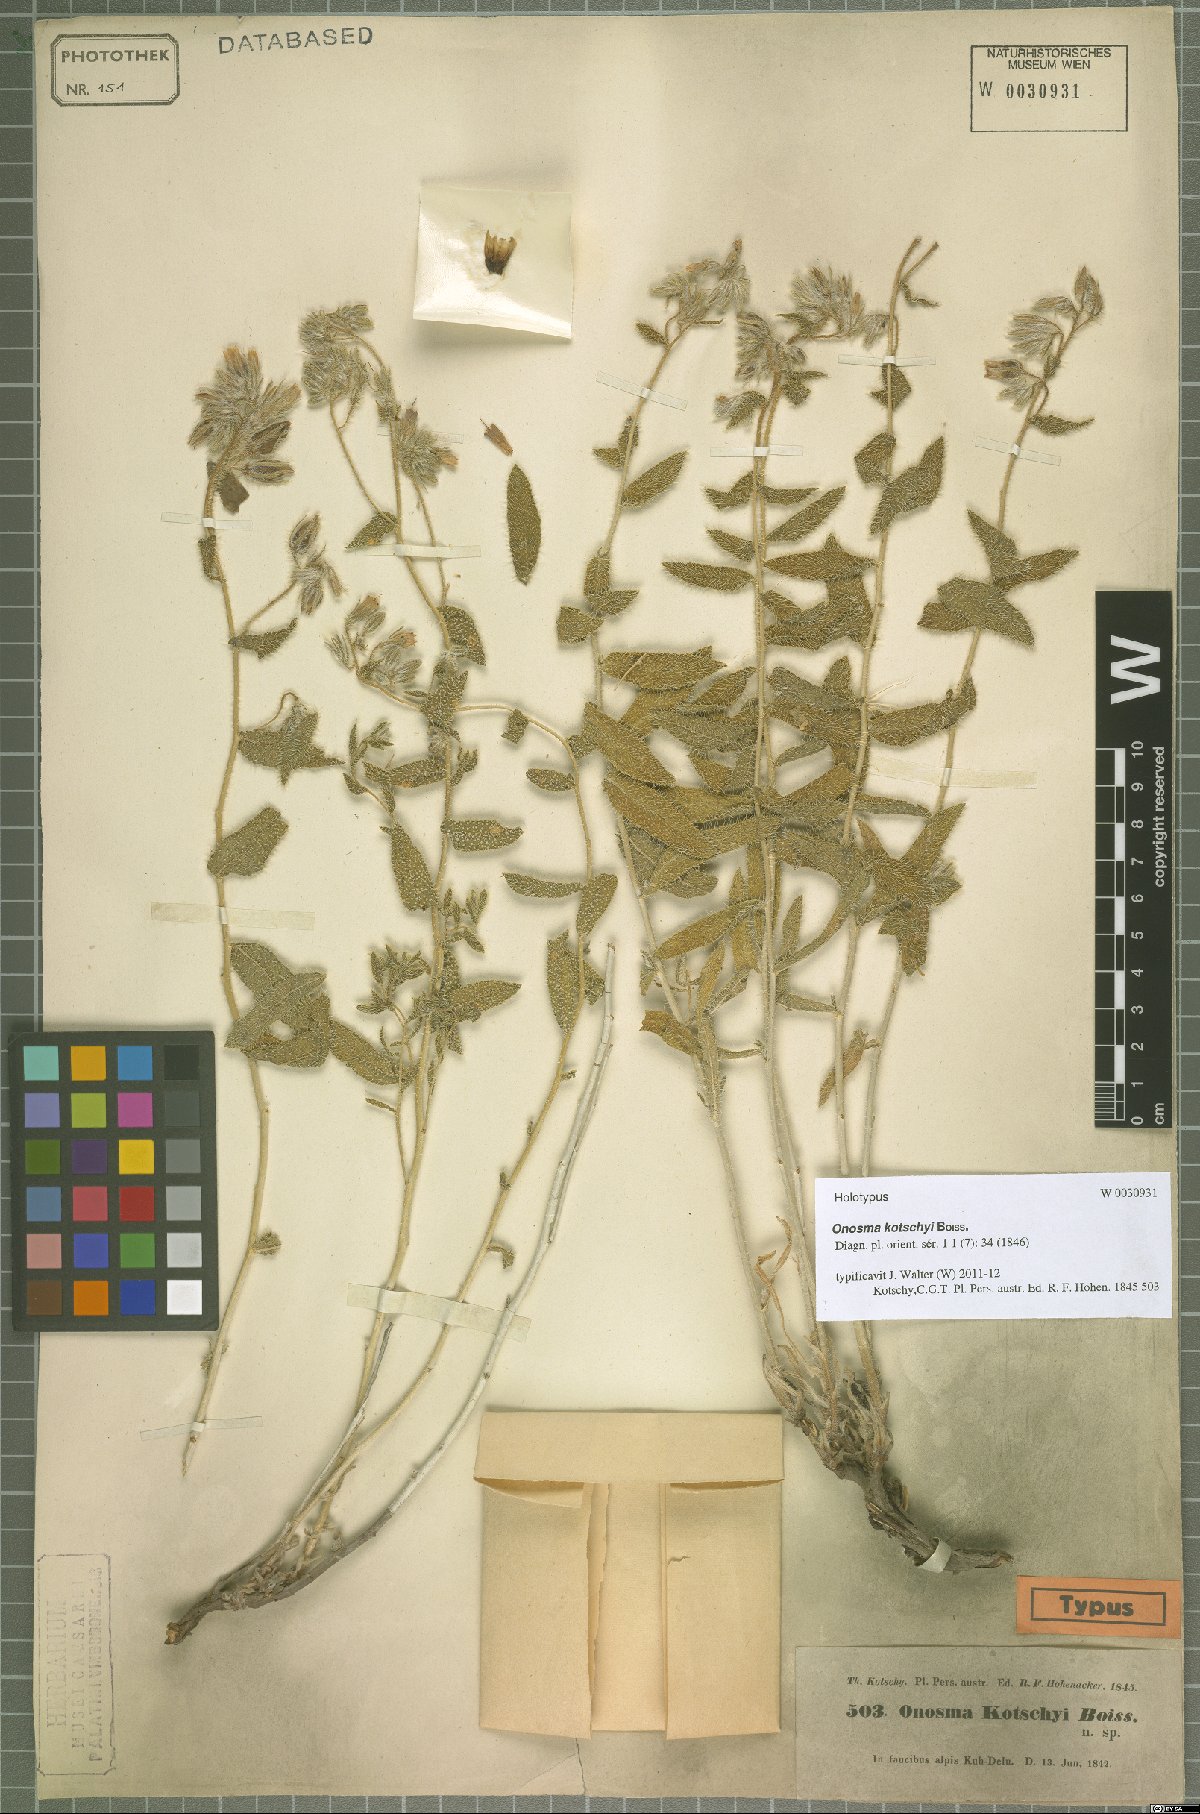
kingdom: Plantae
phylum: Tracheophyta
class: Magnoliopsida
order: Boraginales
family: Boraginaceae
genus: Onosma
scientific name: Onosma kotschyi
